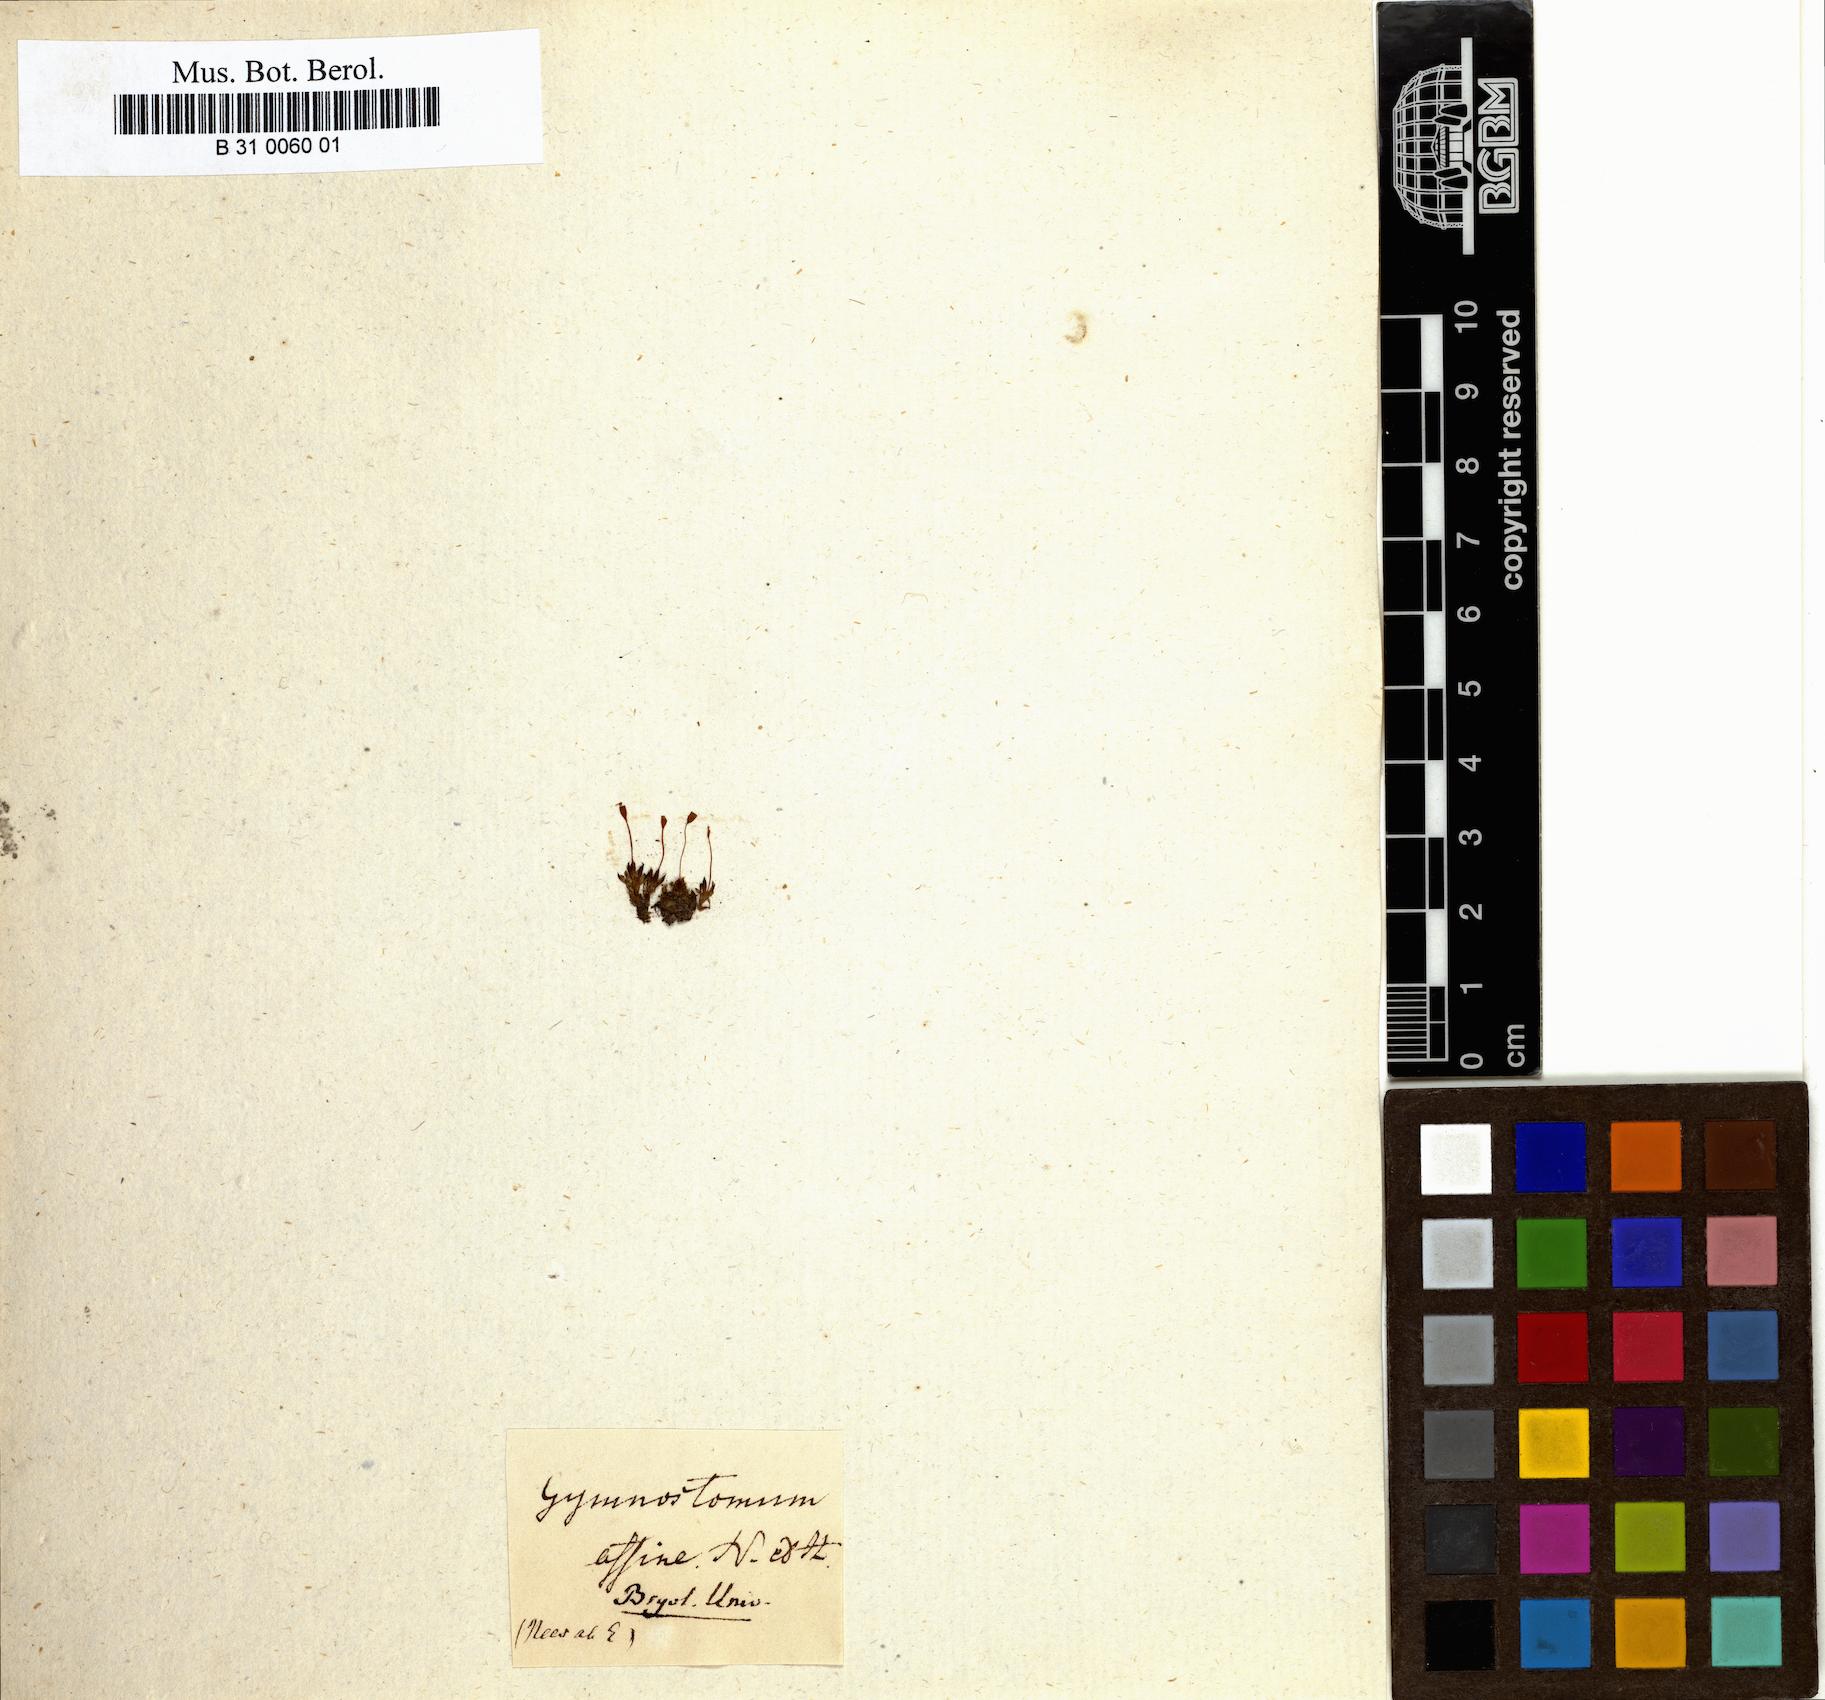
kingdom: Plantae
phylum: Bryophyta
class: Bryopsida
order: Pottiales
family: Pottiaceae
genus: Hennediella
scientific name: Hennediella heimii
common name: Heim's pottia
